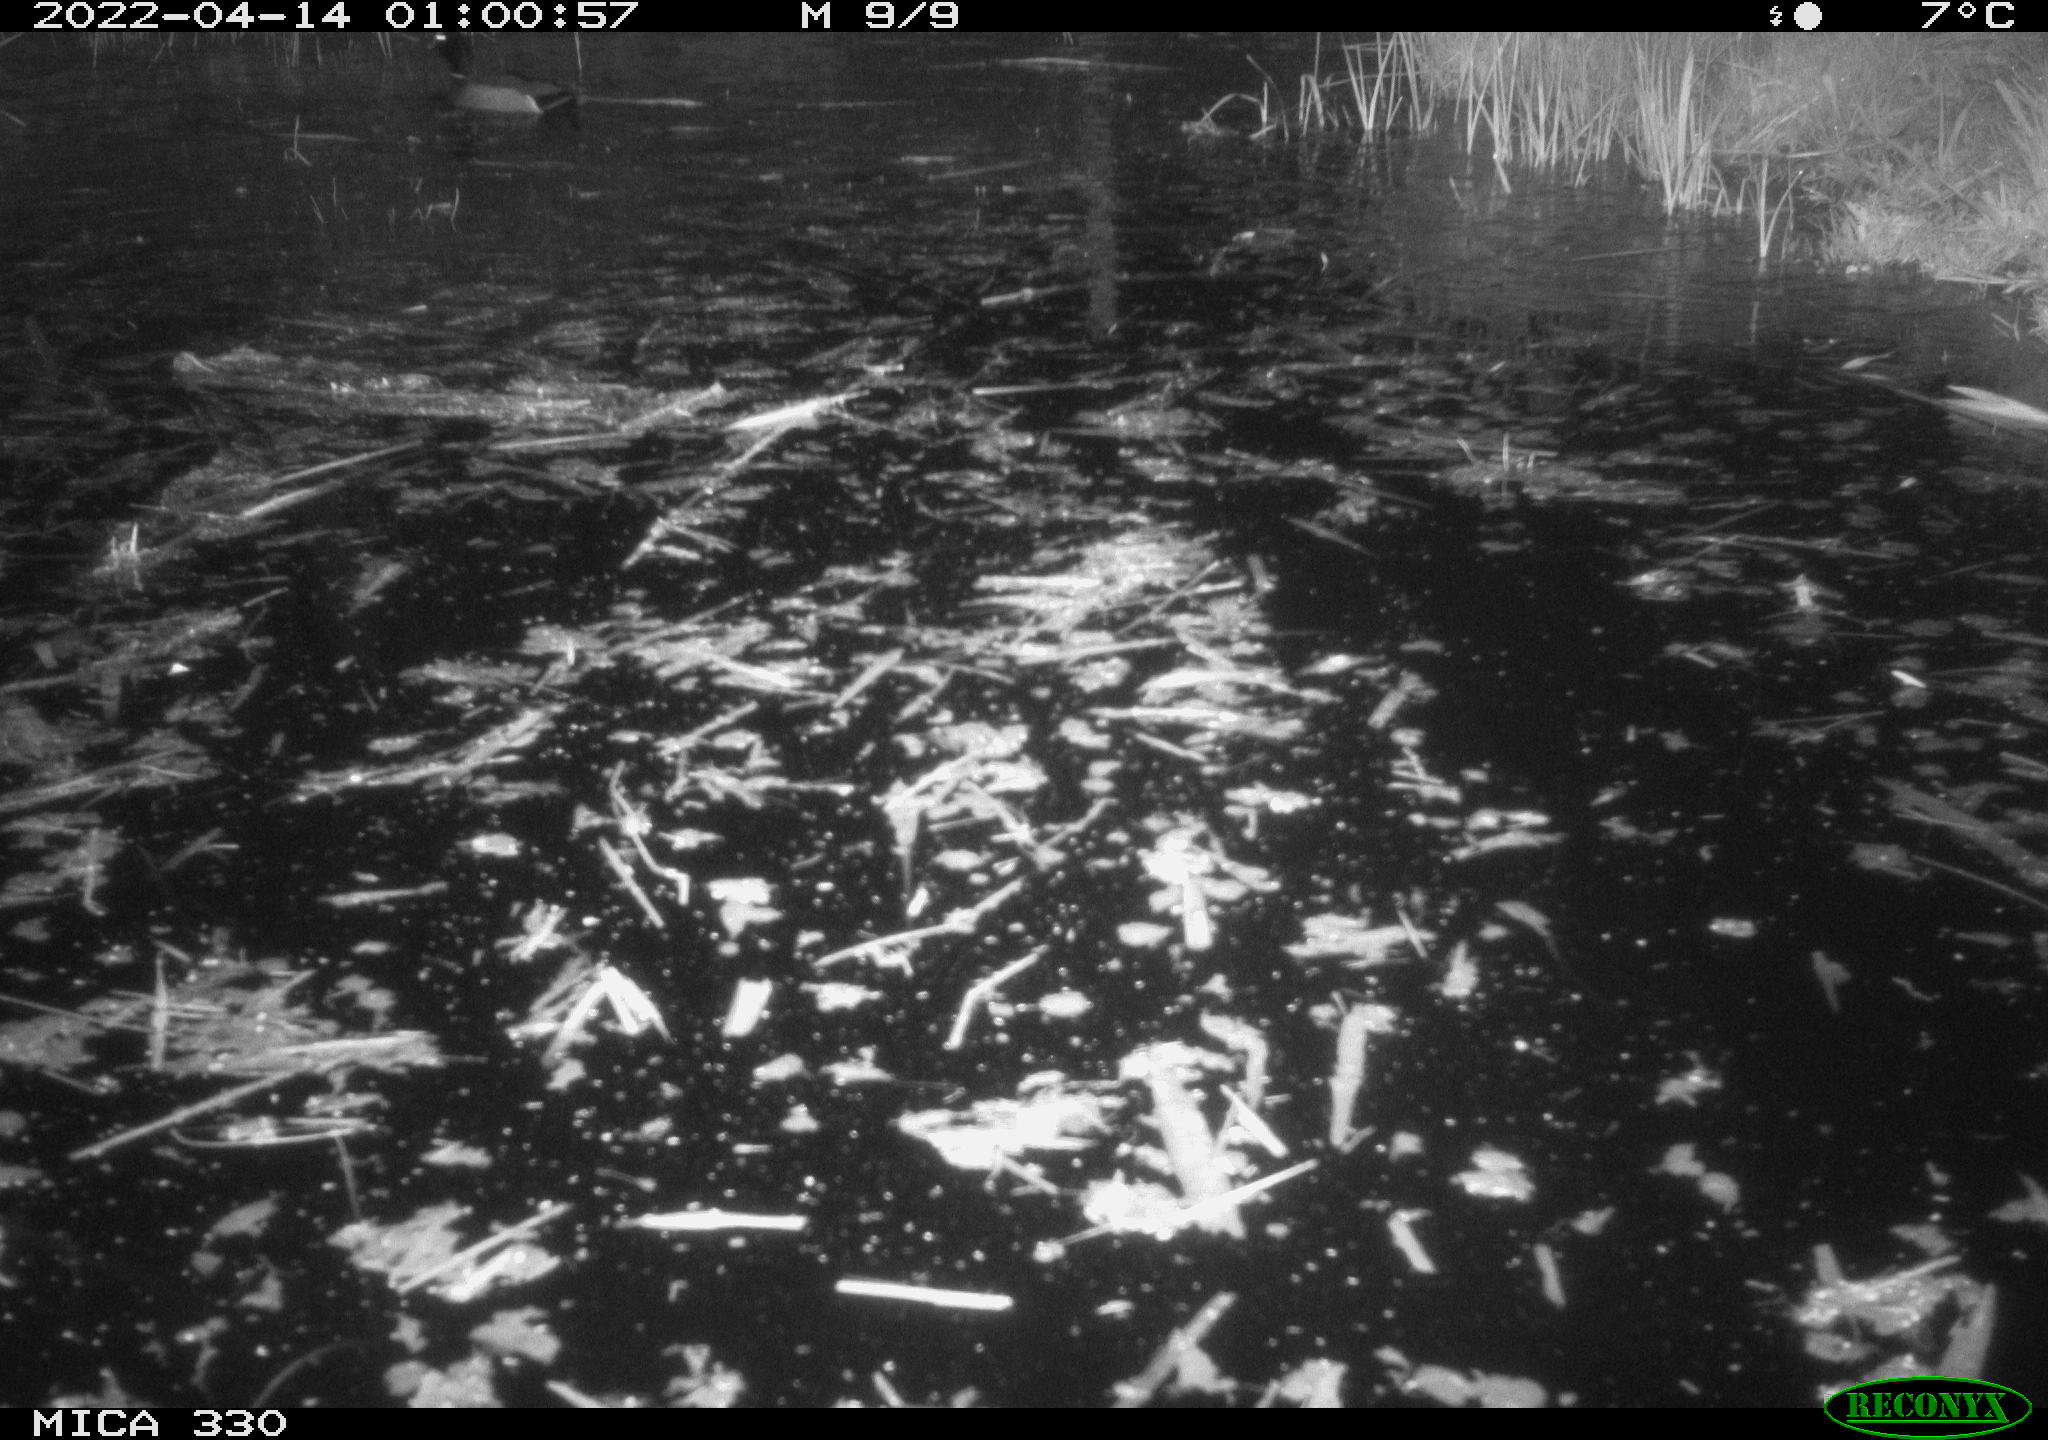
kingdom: Animalia
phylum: Chordata
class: Aves
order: Anseriformes
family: Anatidae
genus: Anas
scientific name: Anas platyrhynchos
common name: Mallard
